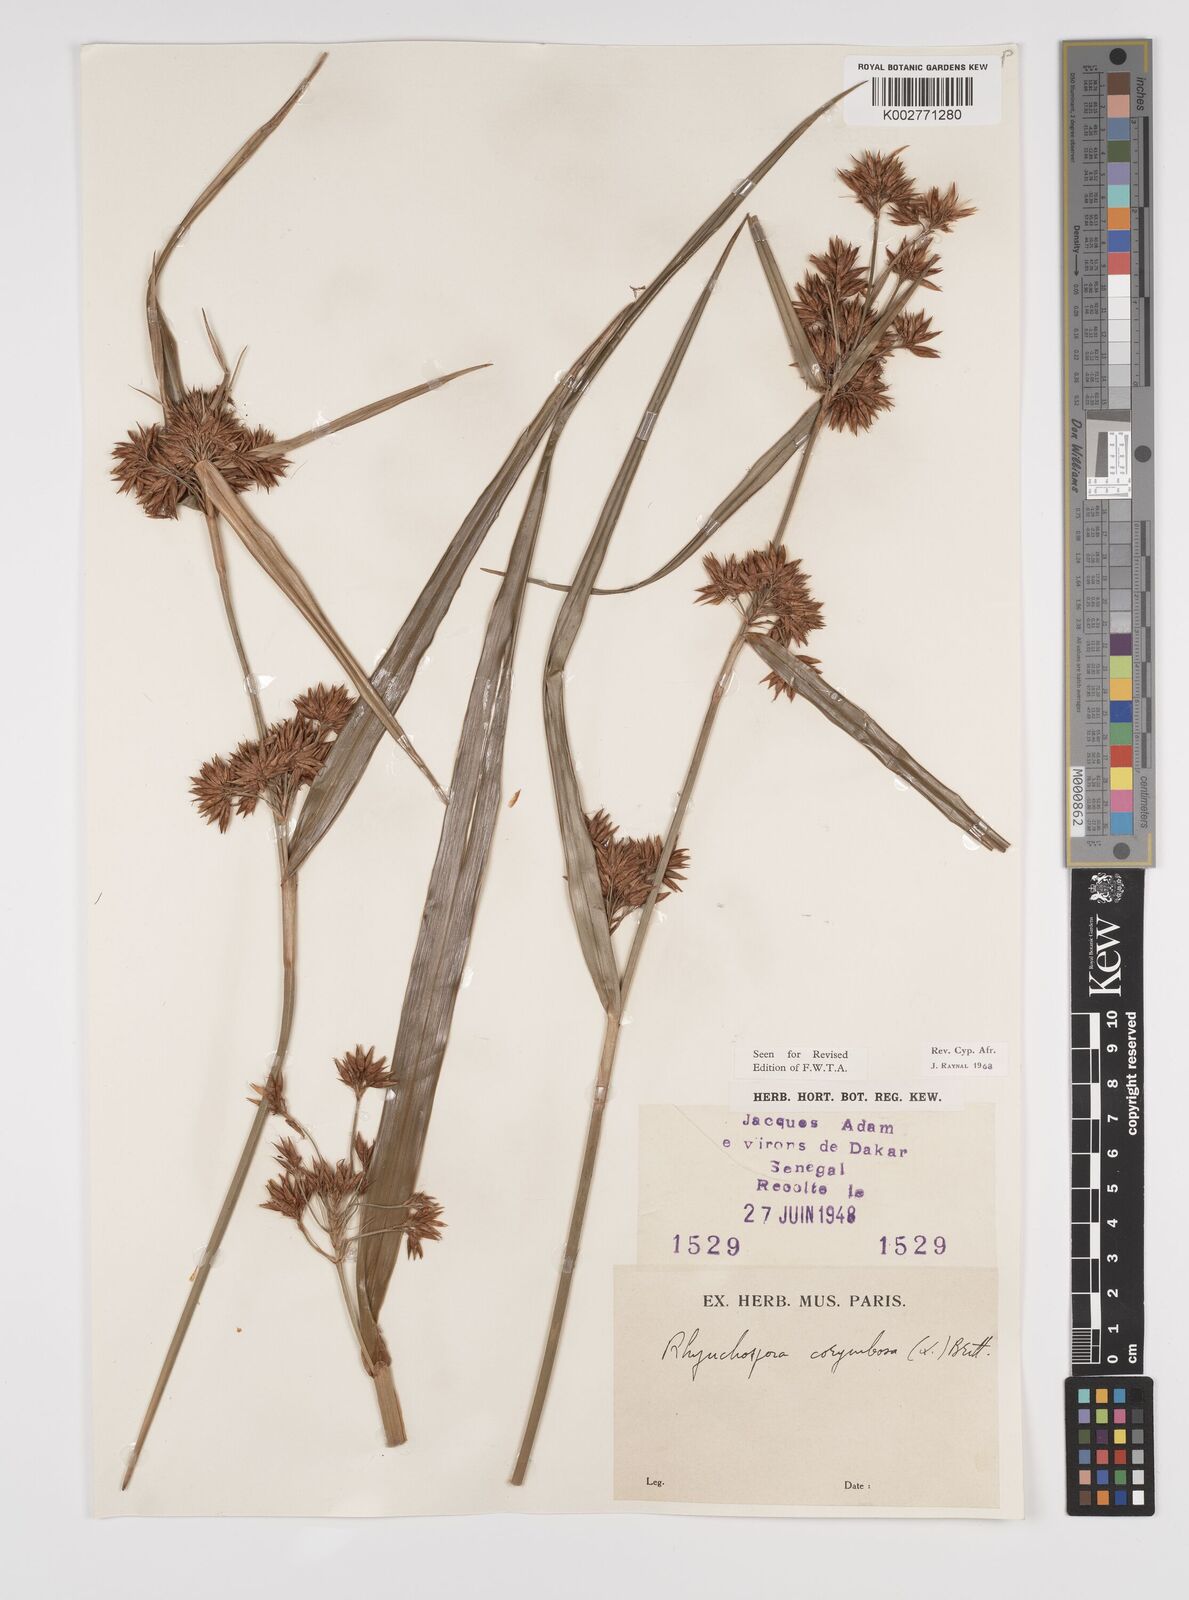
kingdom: Plantae
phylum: Tracheophyta
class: Liliopsida
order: Poales
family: Cyperaceae
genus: Rhynchospora
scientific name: Rhynchospora corymbosa
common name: Golden beak sedge
